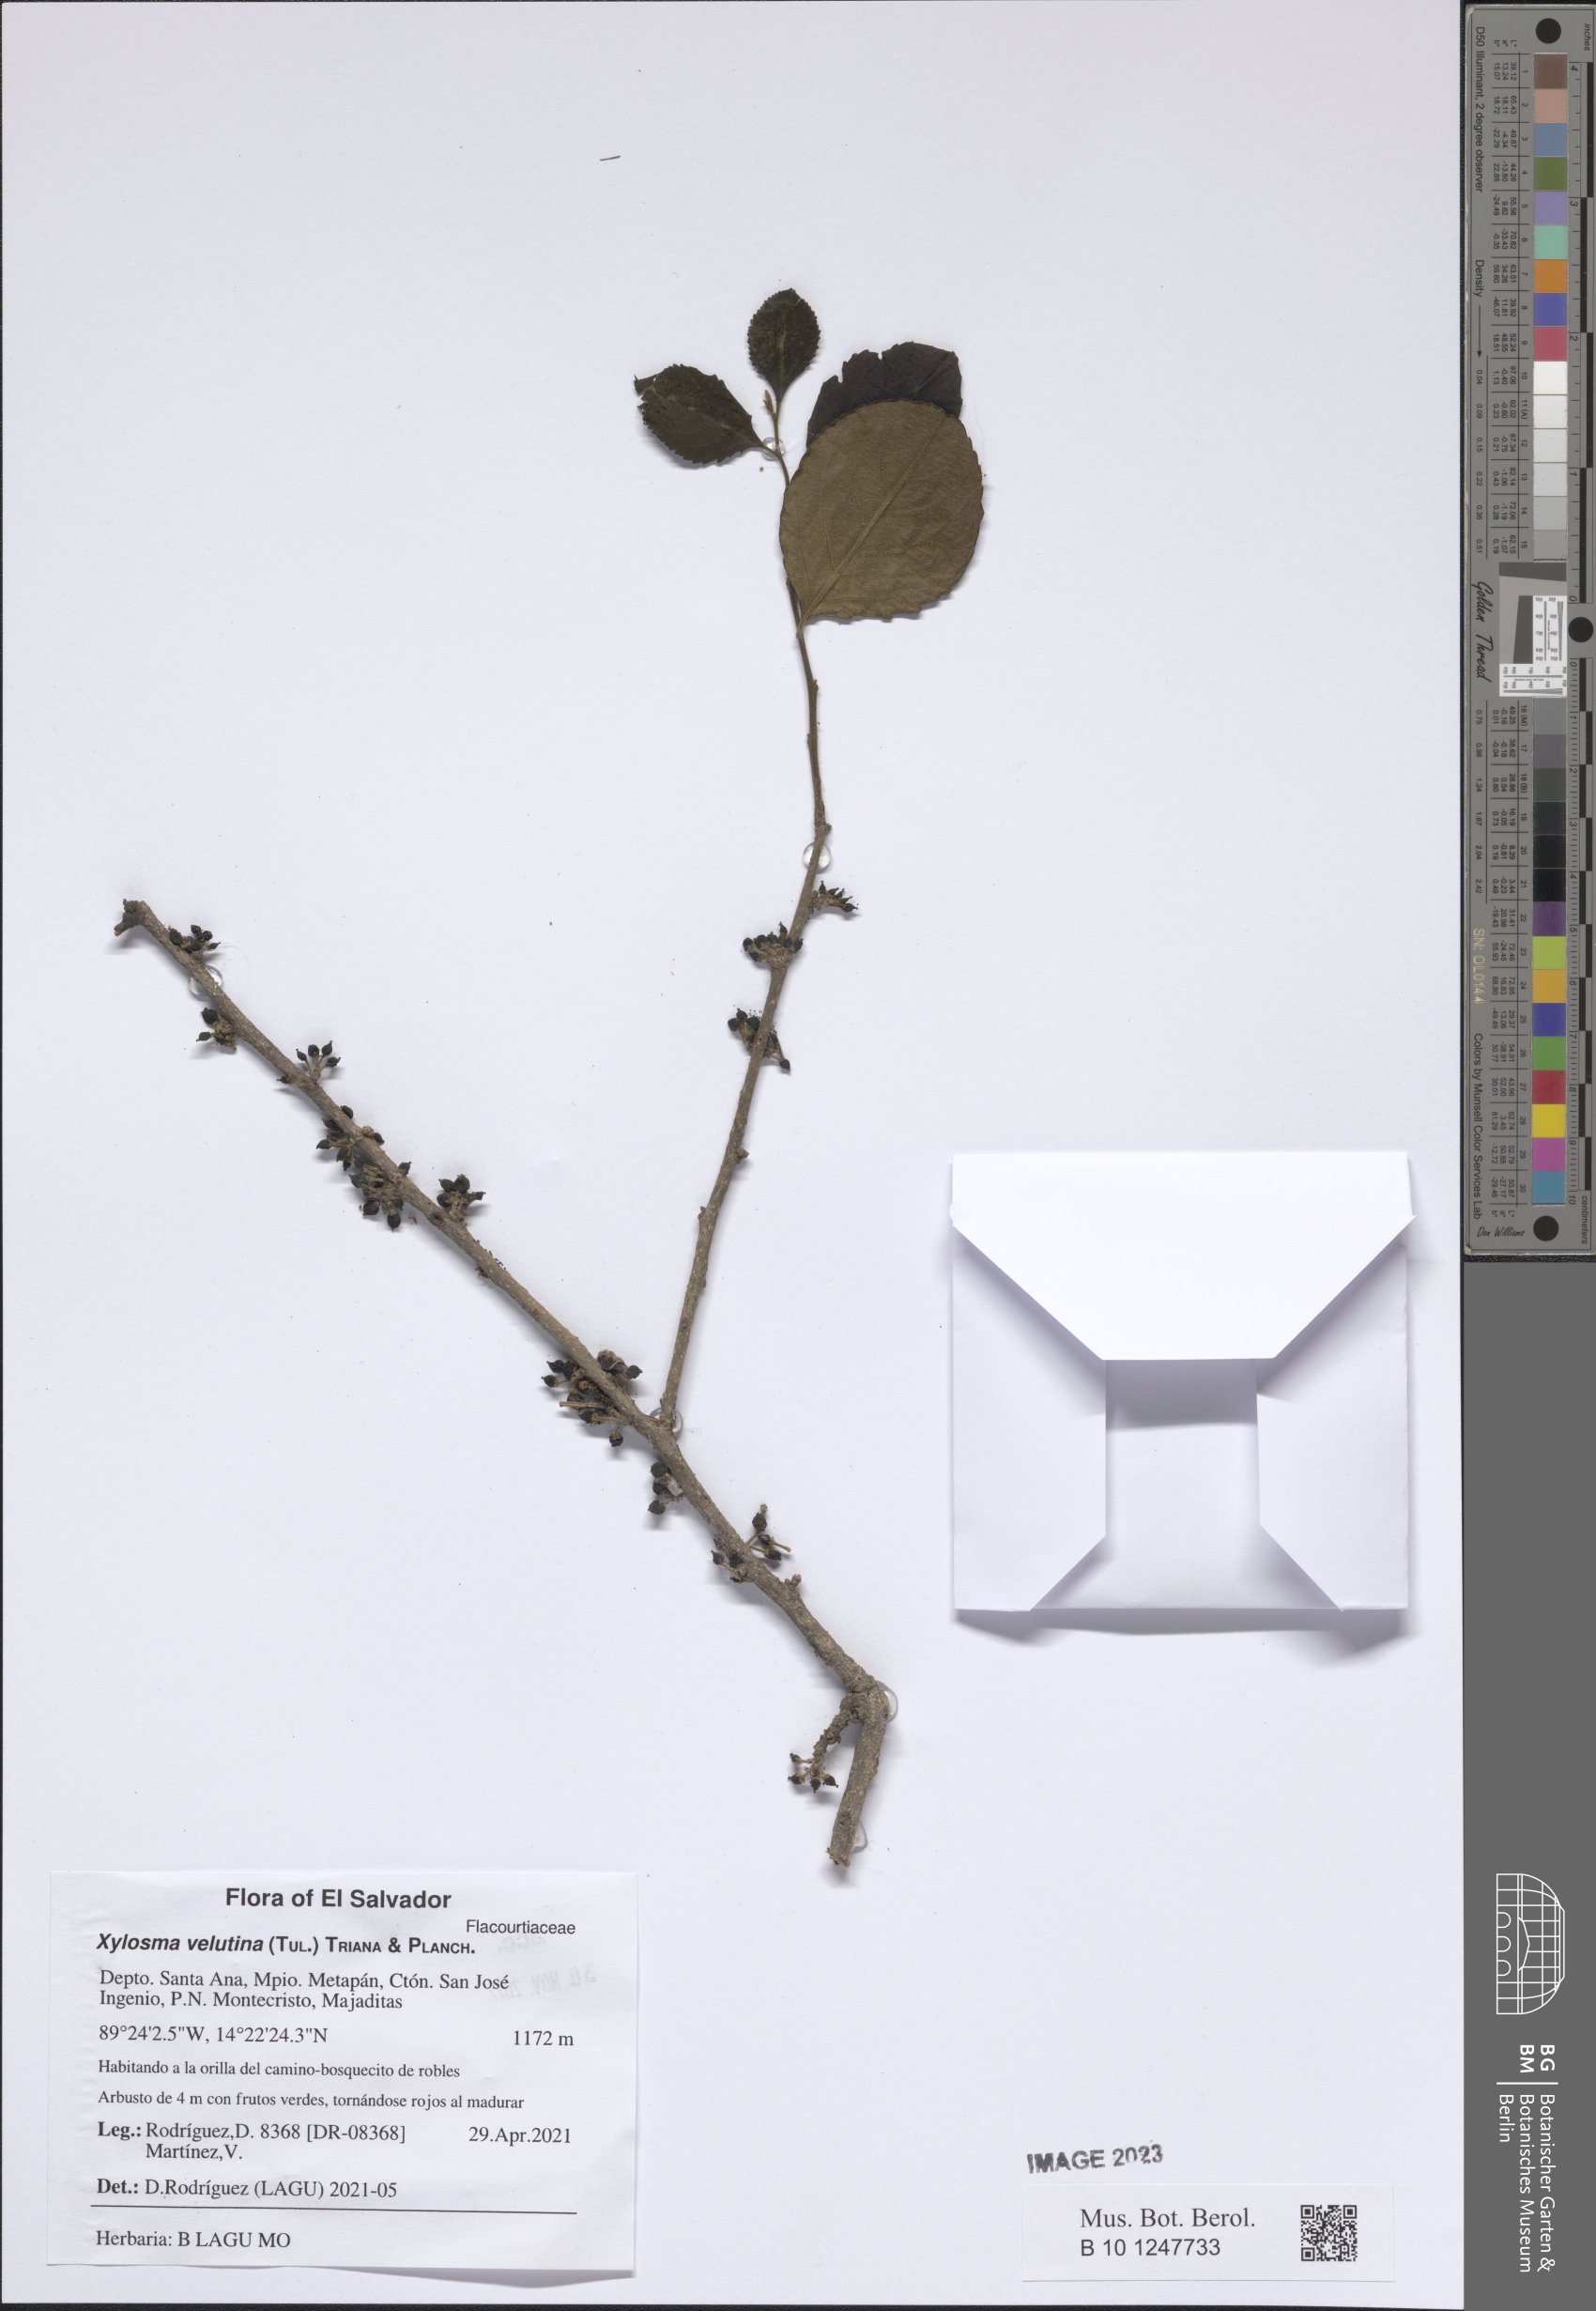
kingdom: Plantae
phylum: Tracheophyta
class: Magnoliopsida
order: Malpighiales
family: Salicaceae
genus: Xylosma
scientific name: Xylosma velutina
